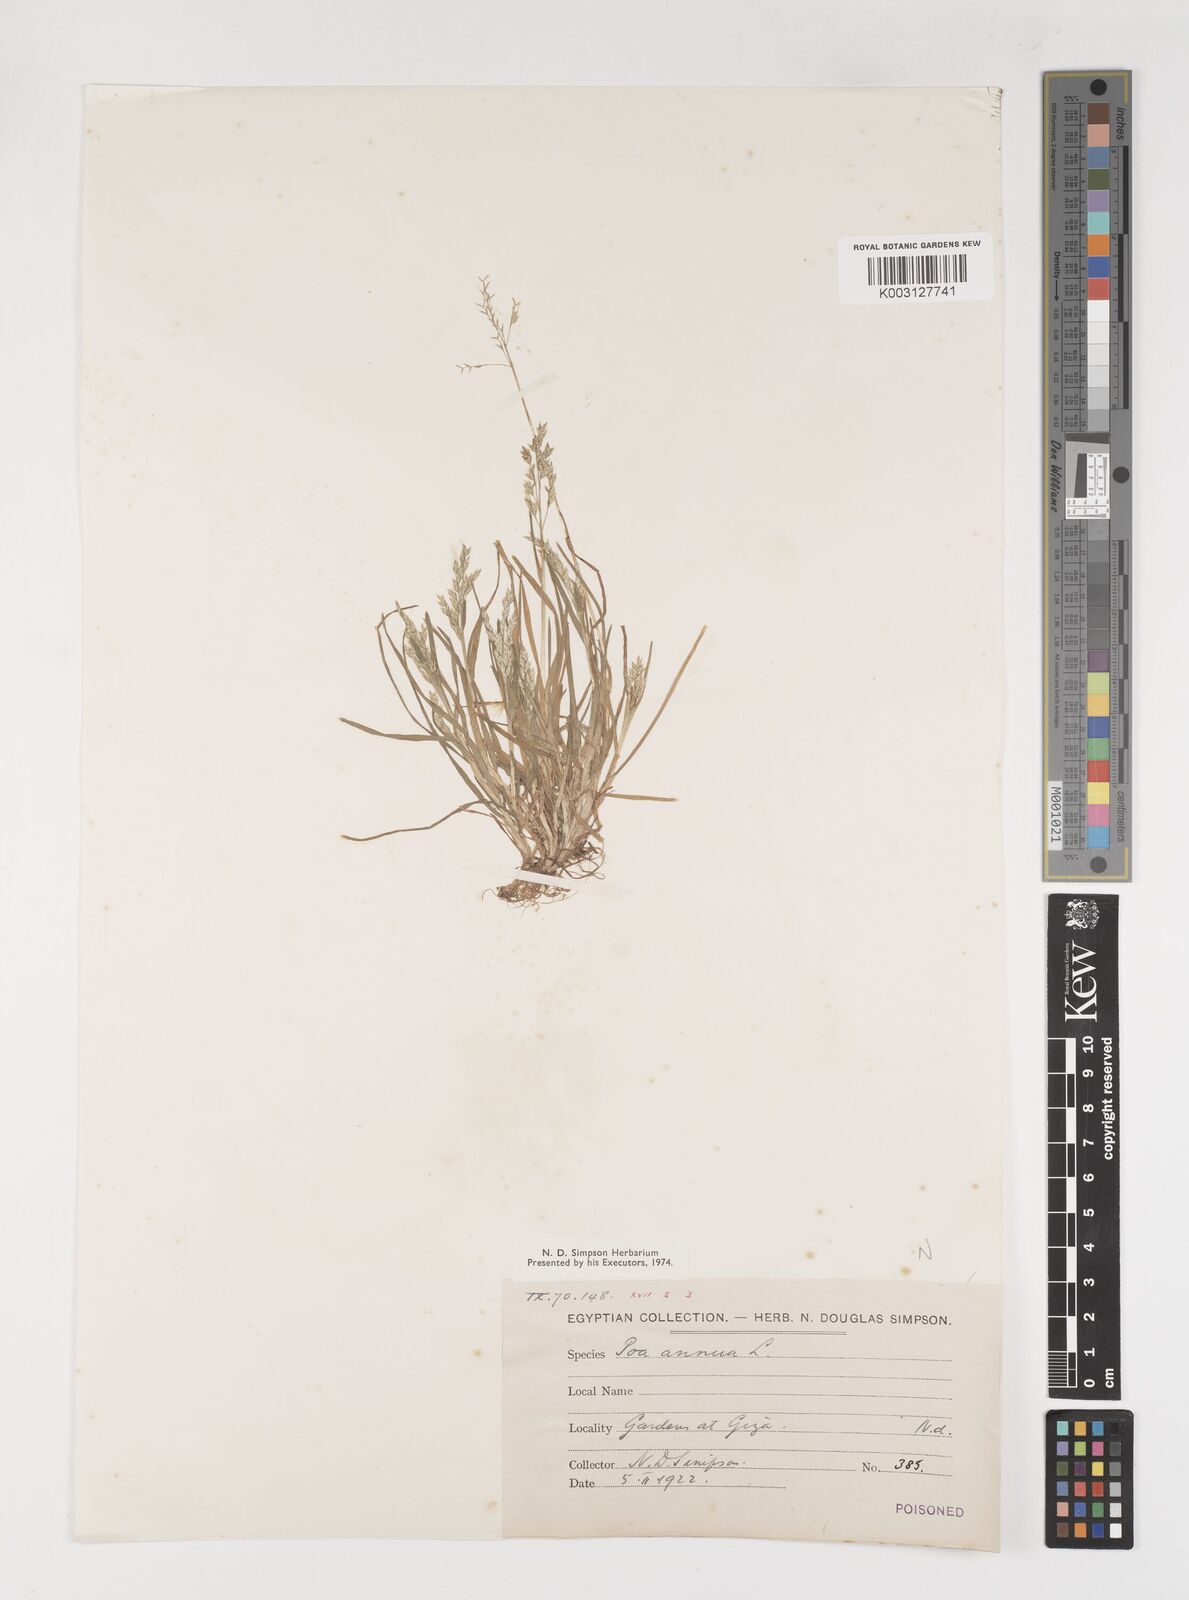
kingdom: Plantae
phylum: Tracheophyta
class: Liliopsida
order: Poales
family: Poaceae
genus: Poa
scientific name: Poa annua
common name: Annual bluegrass
